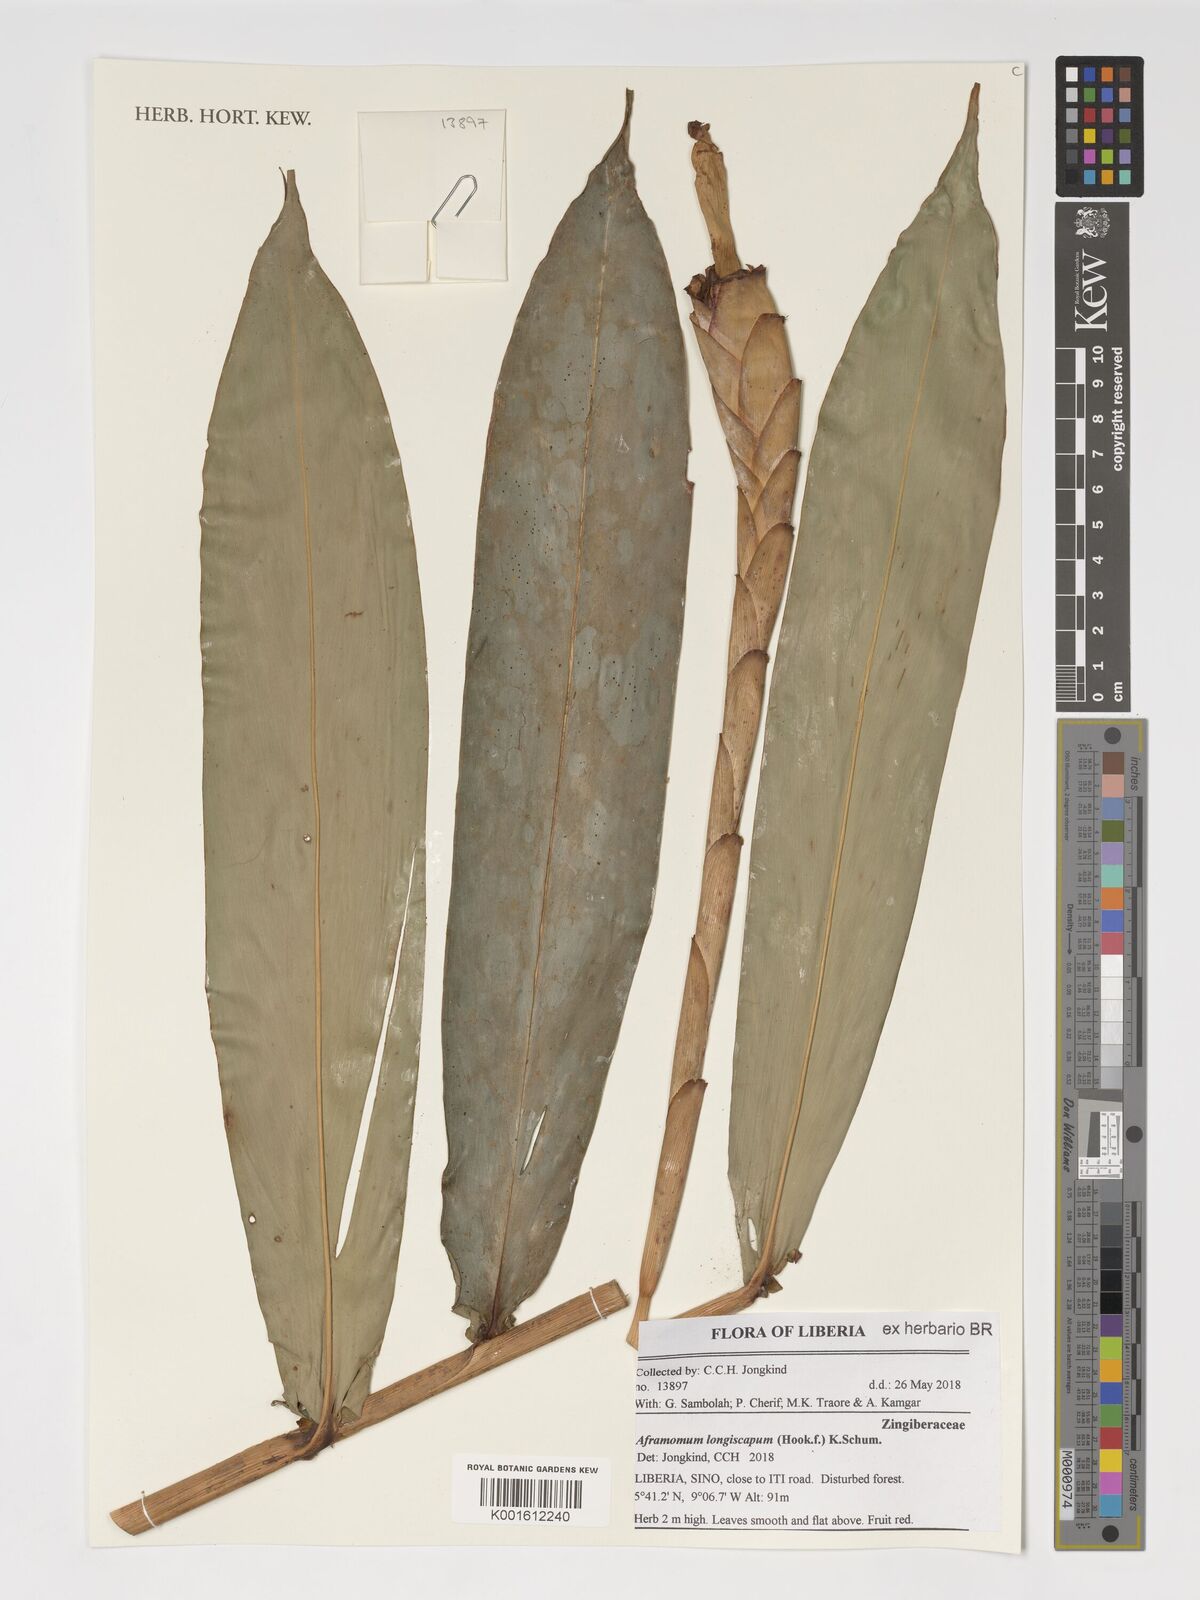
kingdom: Plantae
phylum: Tracheophyta
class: Liliopsida
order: Zingiberales
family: Zingiberaceae
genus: Aframomum
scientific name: Aframomum longiscapum
